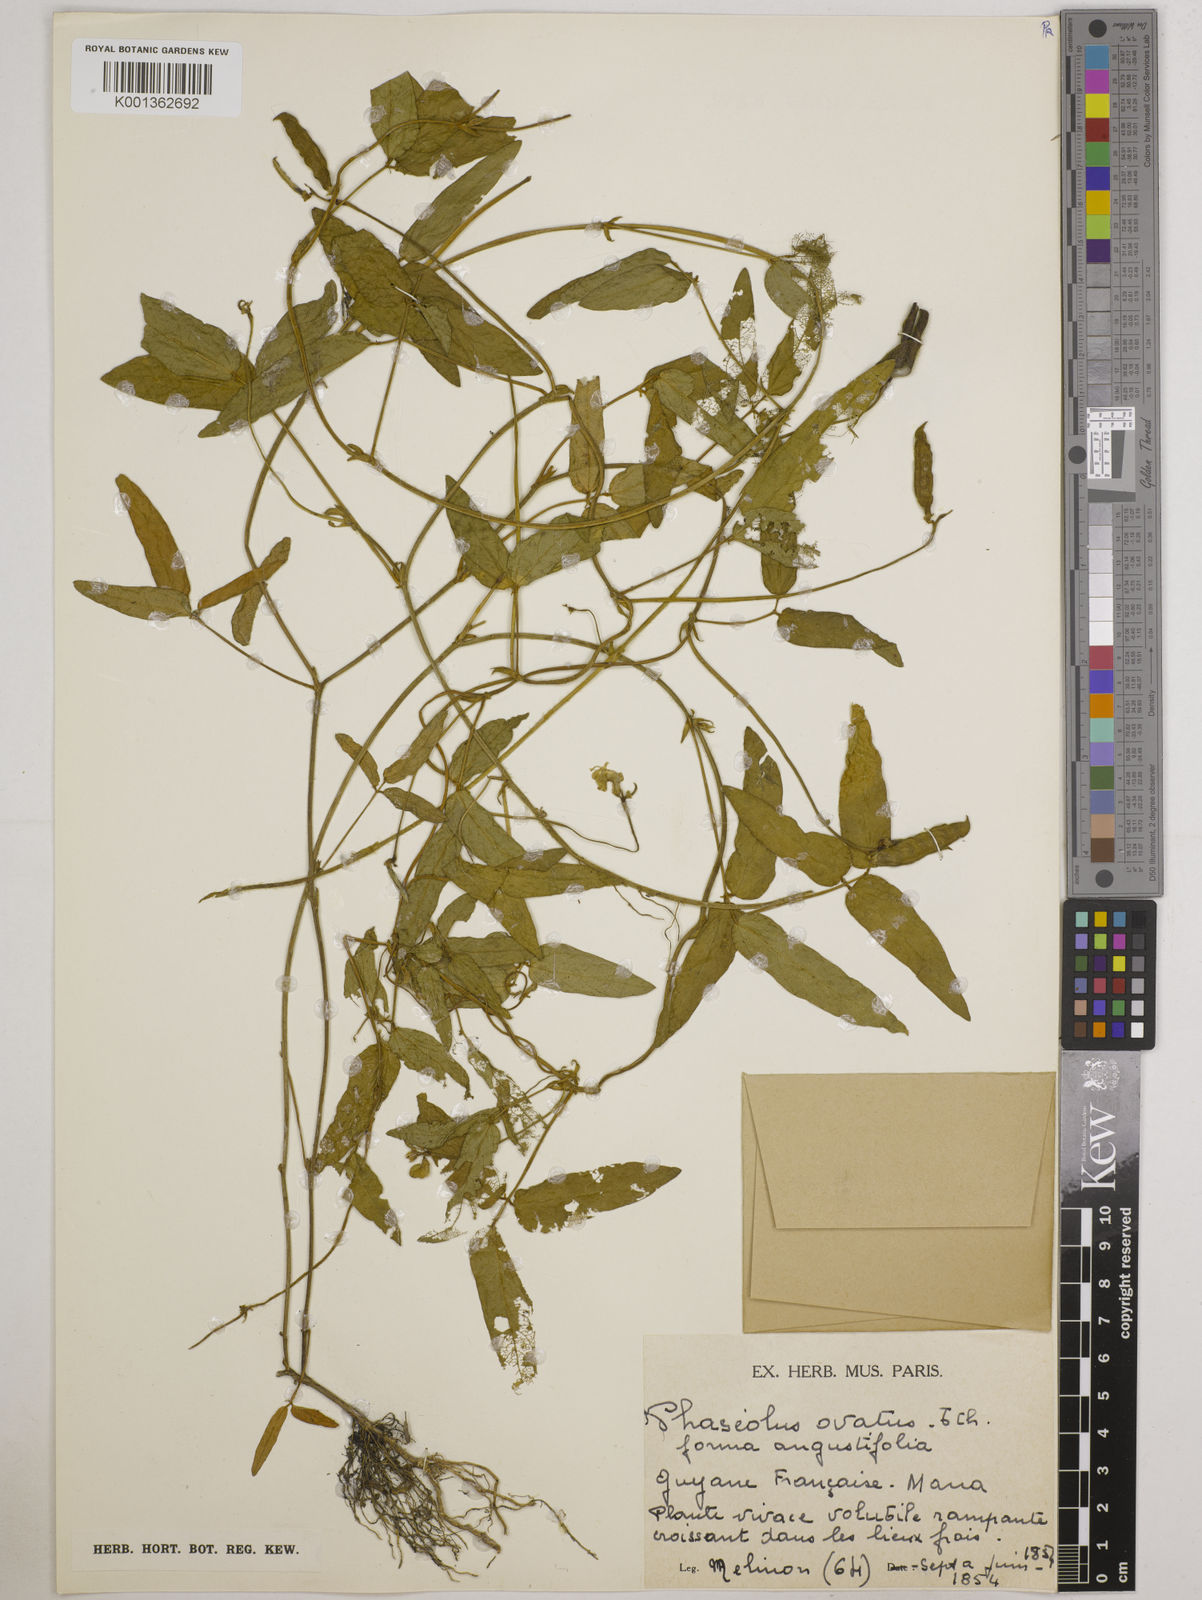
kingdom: Plantae
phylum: Tracheophyta
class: Magnoliopsida
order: Fabales
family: Fabaceae
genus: Vigna
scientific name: Vigna longifolia
